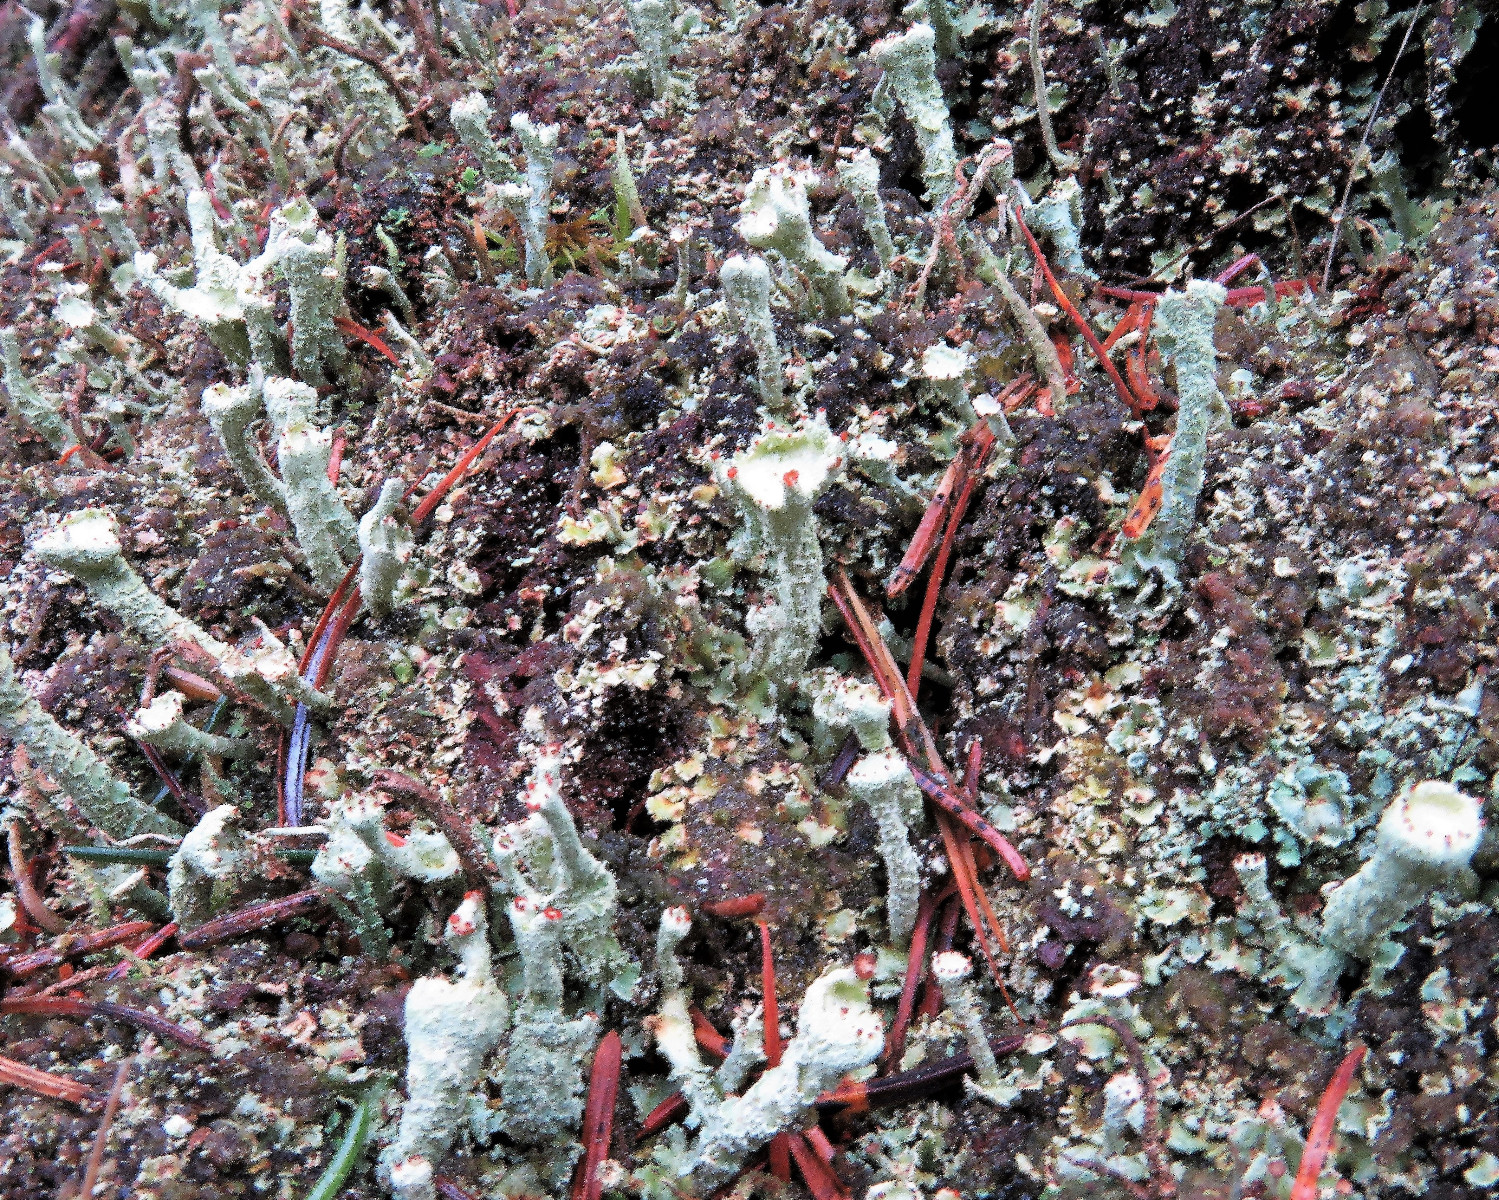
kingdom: Fungi
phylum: Ascomycota
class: Lecanoromycetes
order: Lecanorales
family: Cladoniaceae
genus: Cladonia
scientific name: Cladonia digitata
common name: finger-bægerlav
